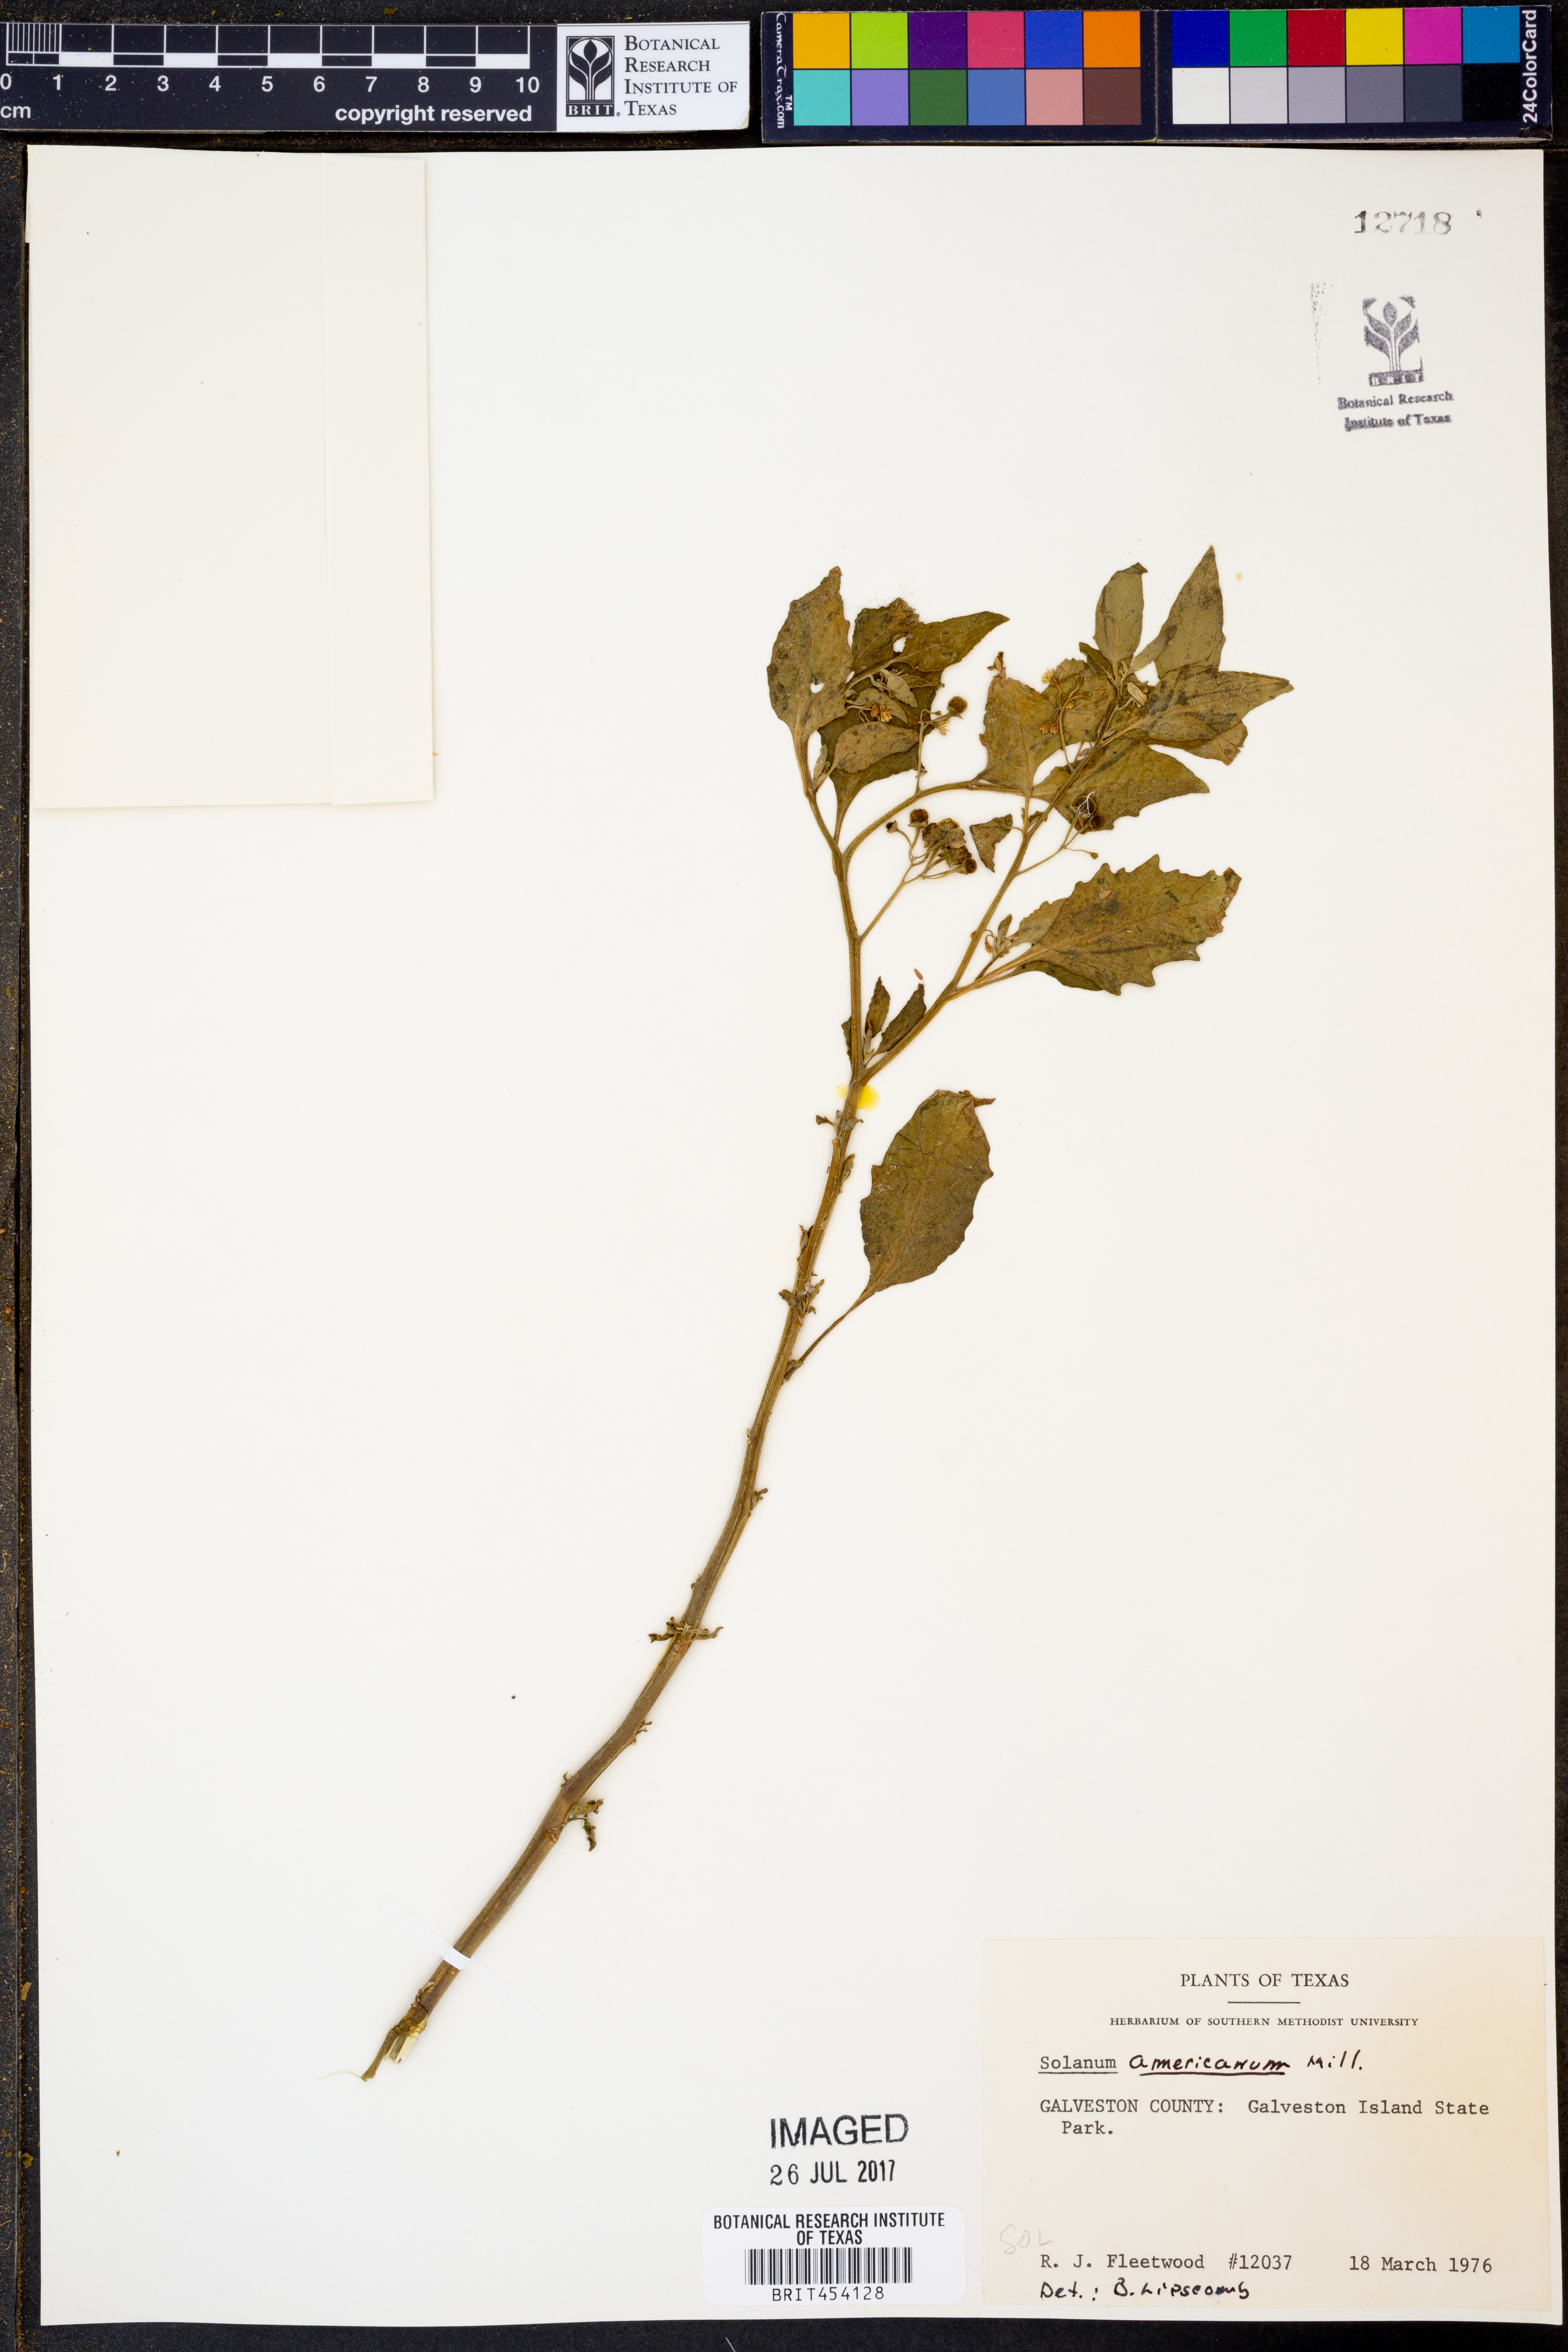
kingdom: Plantae
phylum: Tracheophyta
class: Magnoliopsida
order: Solanales
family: Solanaceae
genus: Solanum
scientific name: Solanum americanum
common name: American black nightshade
